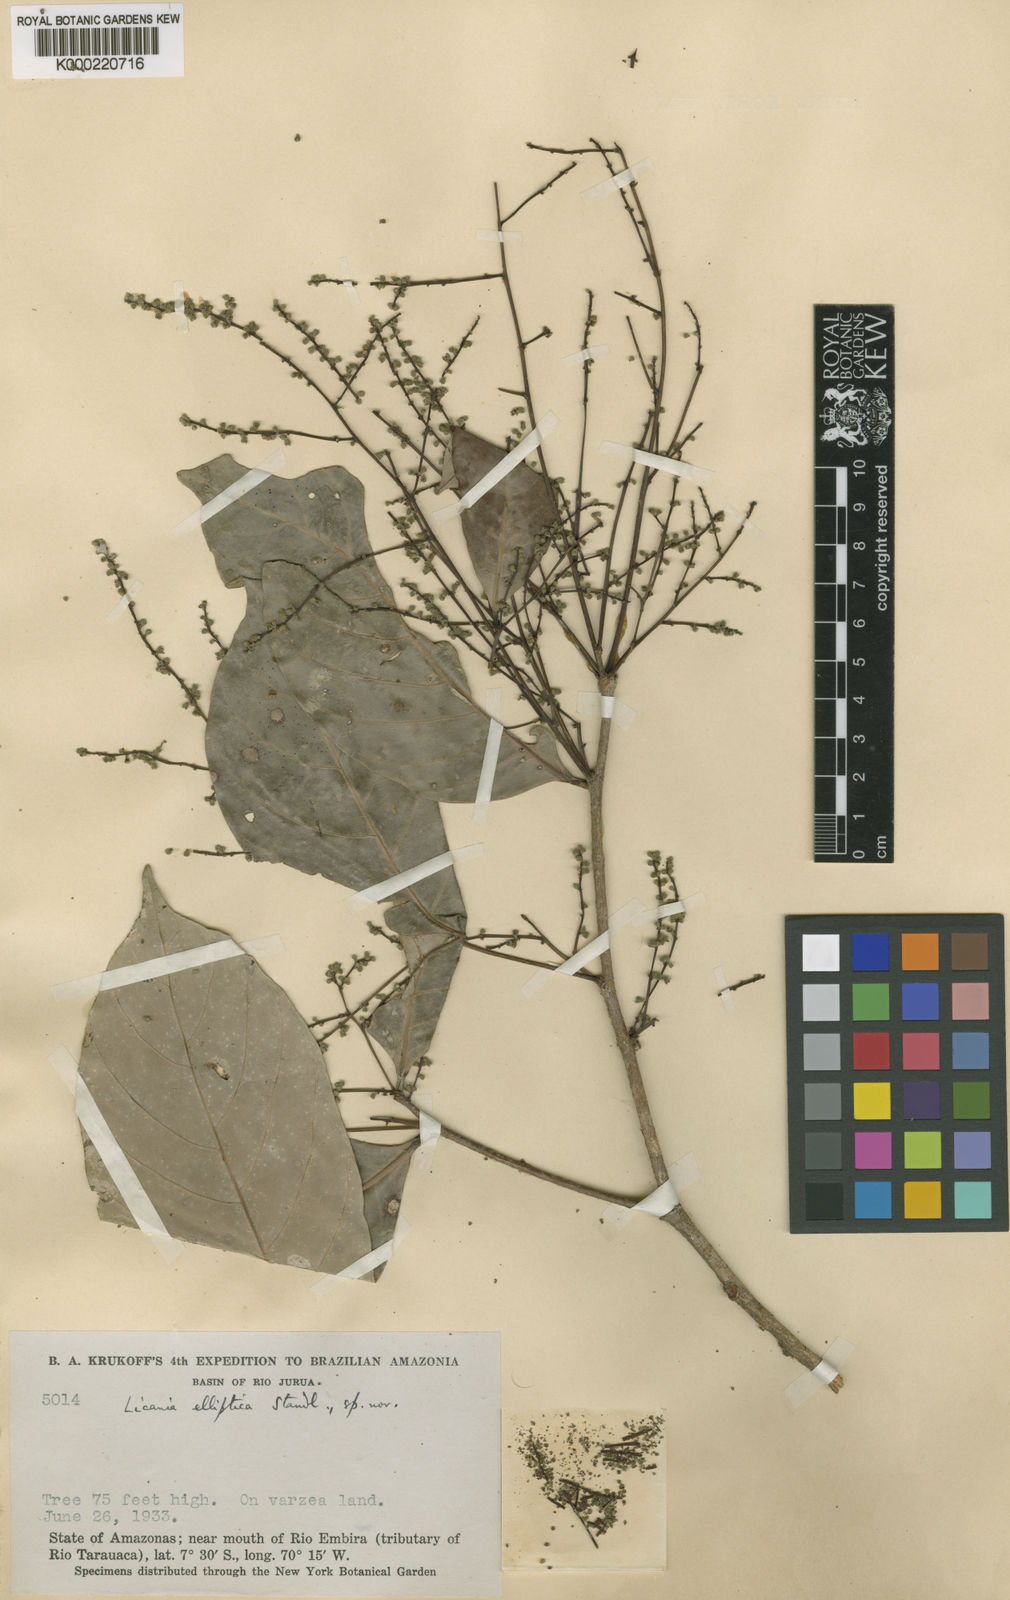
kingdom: Plantae
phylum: Tracheophyta
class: Magnoliopsida
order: Malpighiales
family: Chrysobalanaceae
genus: Licania
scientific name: Licania elliptica
